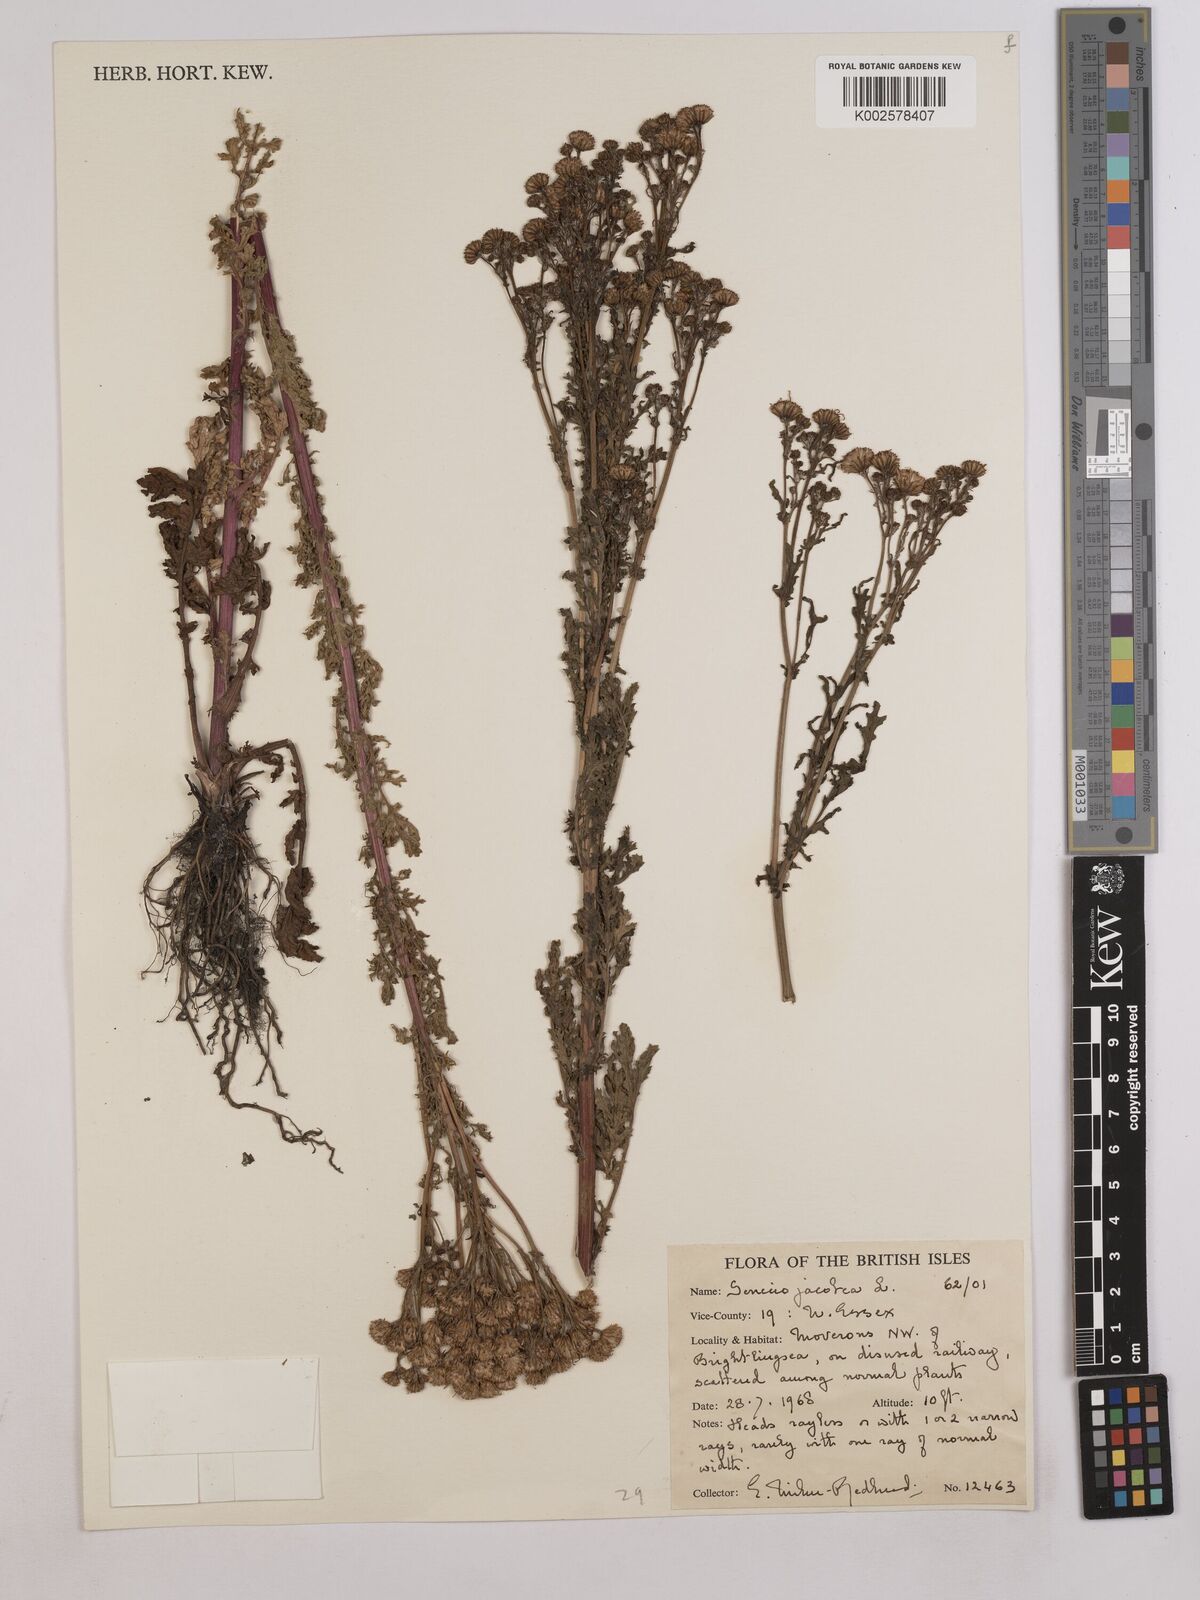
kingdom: Plantae
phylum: Tracheophyta
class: Magnoliopsida
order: Asterales
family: Asteraceae
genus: Jacobaea
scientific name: Jacobaea vulgaris
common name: Stinking willie
